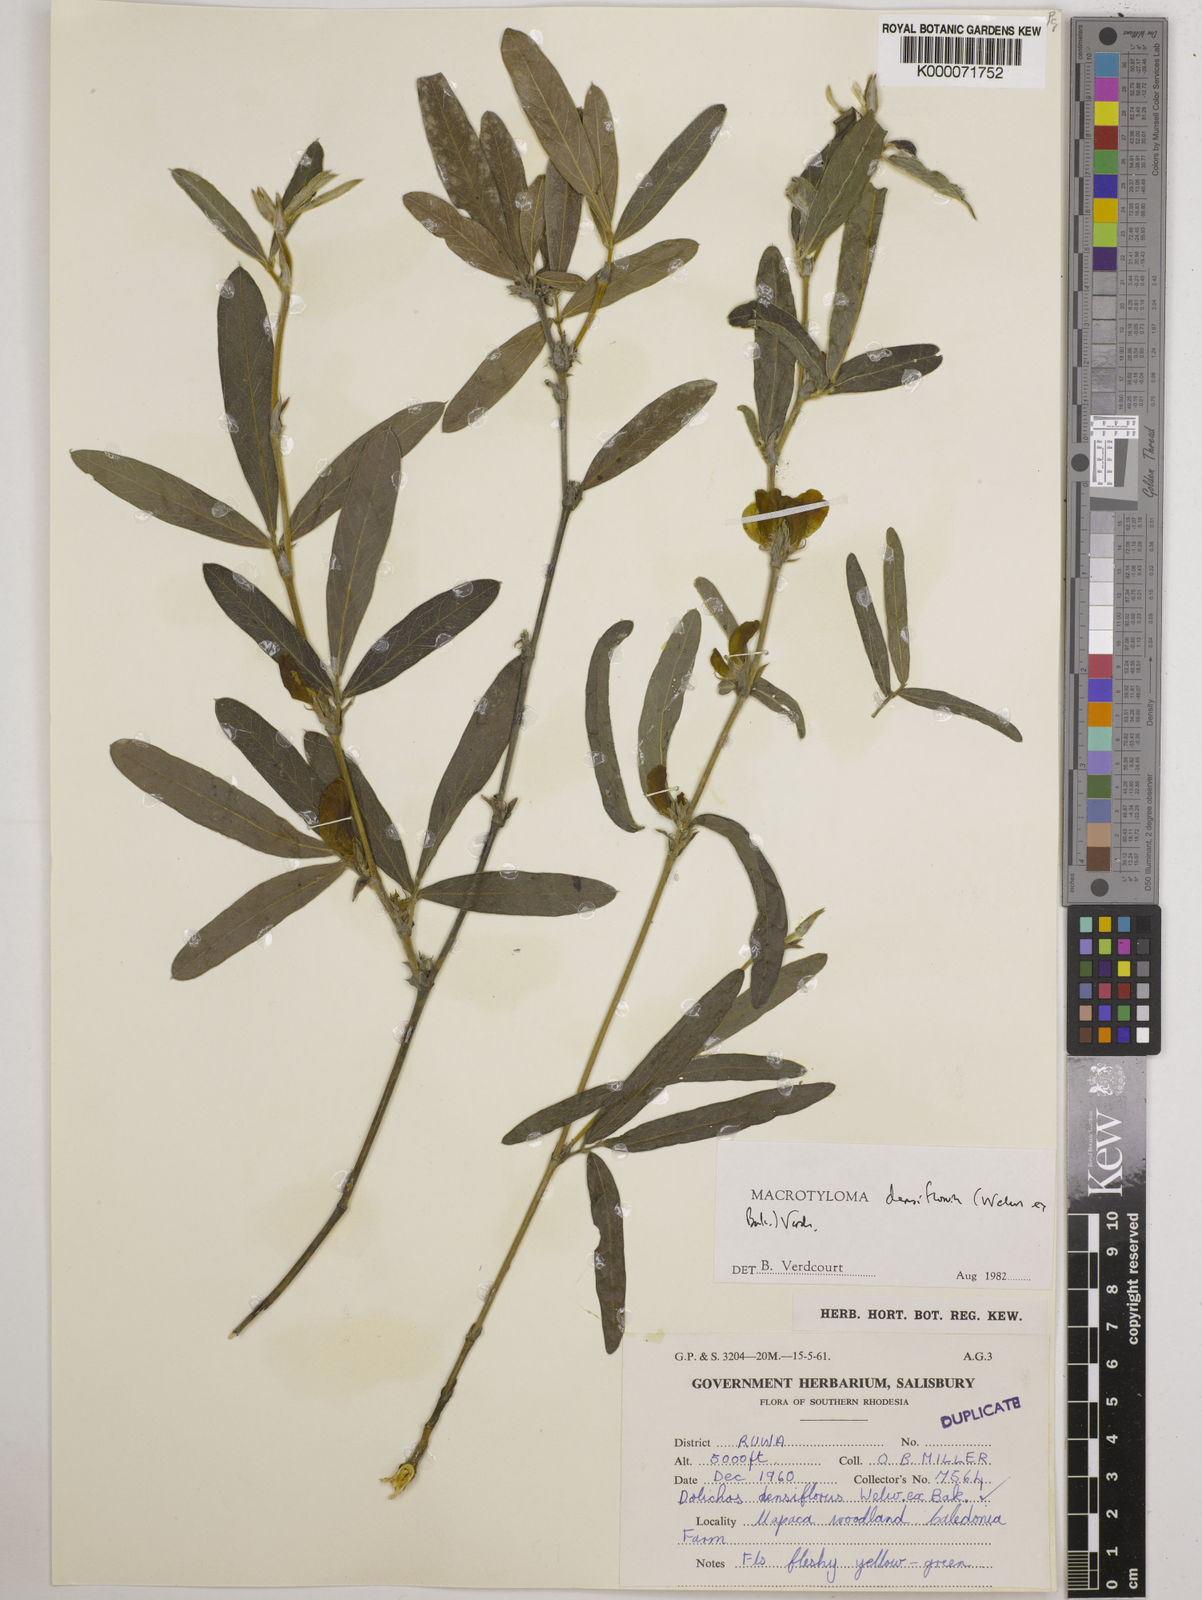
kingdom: Plantae
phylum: Tracheophyta
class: Magnoliopsida
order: Fabales
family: Fabaceae
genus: Macrotyloma
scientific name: Macrotyloma densiflorum
